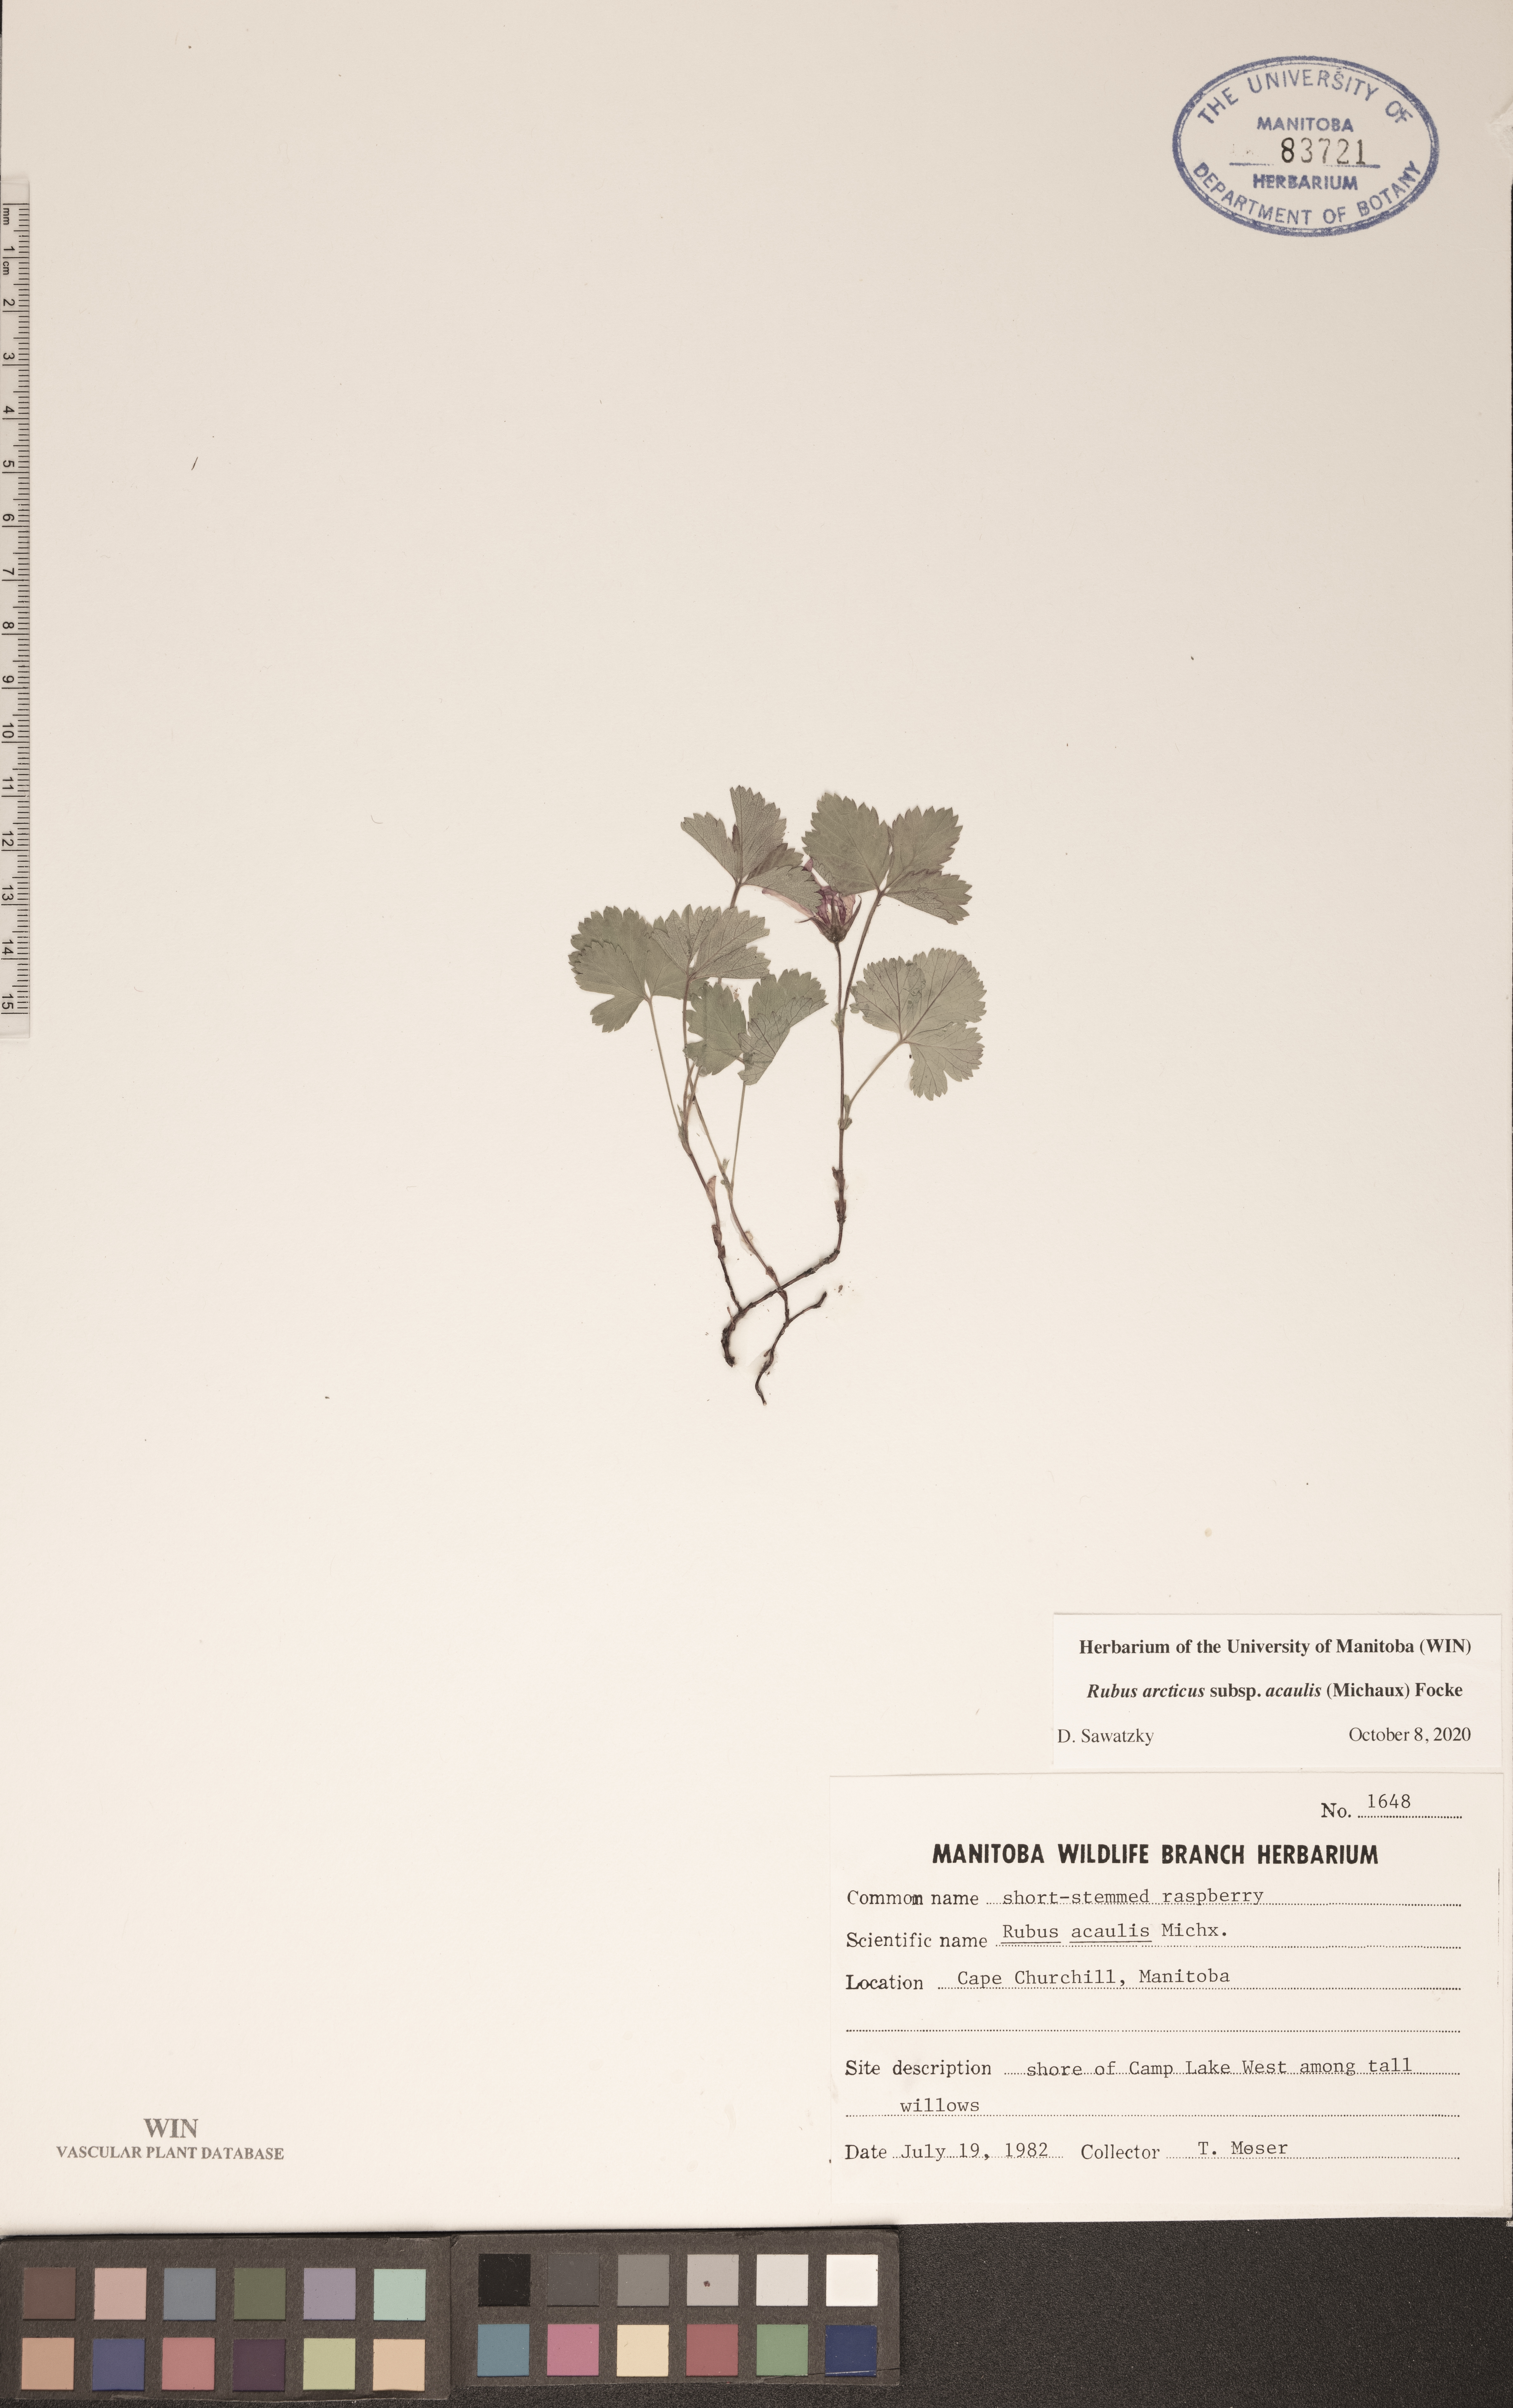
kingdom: Plantae
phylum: Tracheophyta
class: Magnoliopsida
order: Rosales
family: Rosaceae
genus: Rubus
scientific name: Rubus arcticus
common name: Arctic bramble
